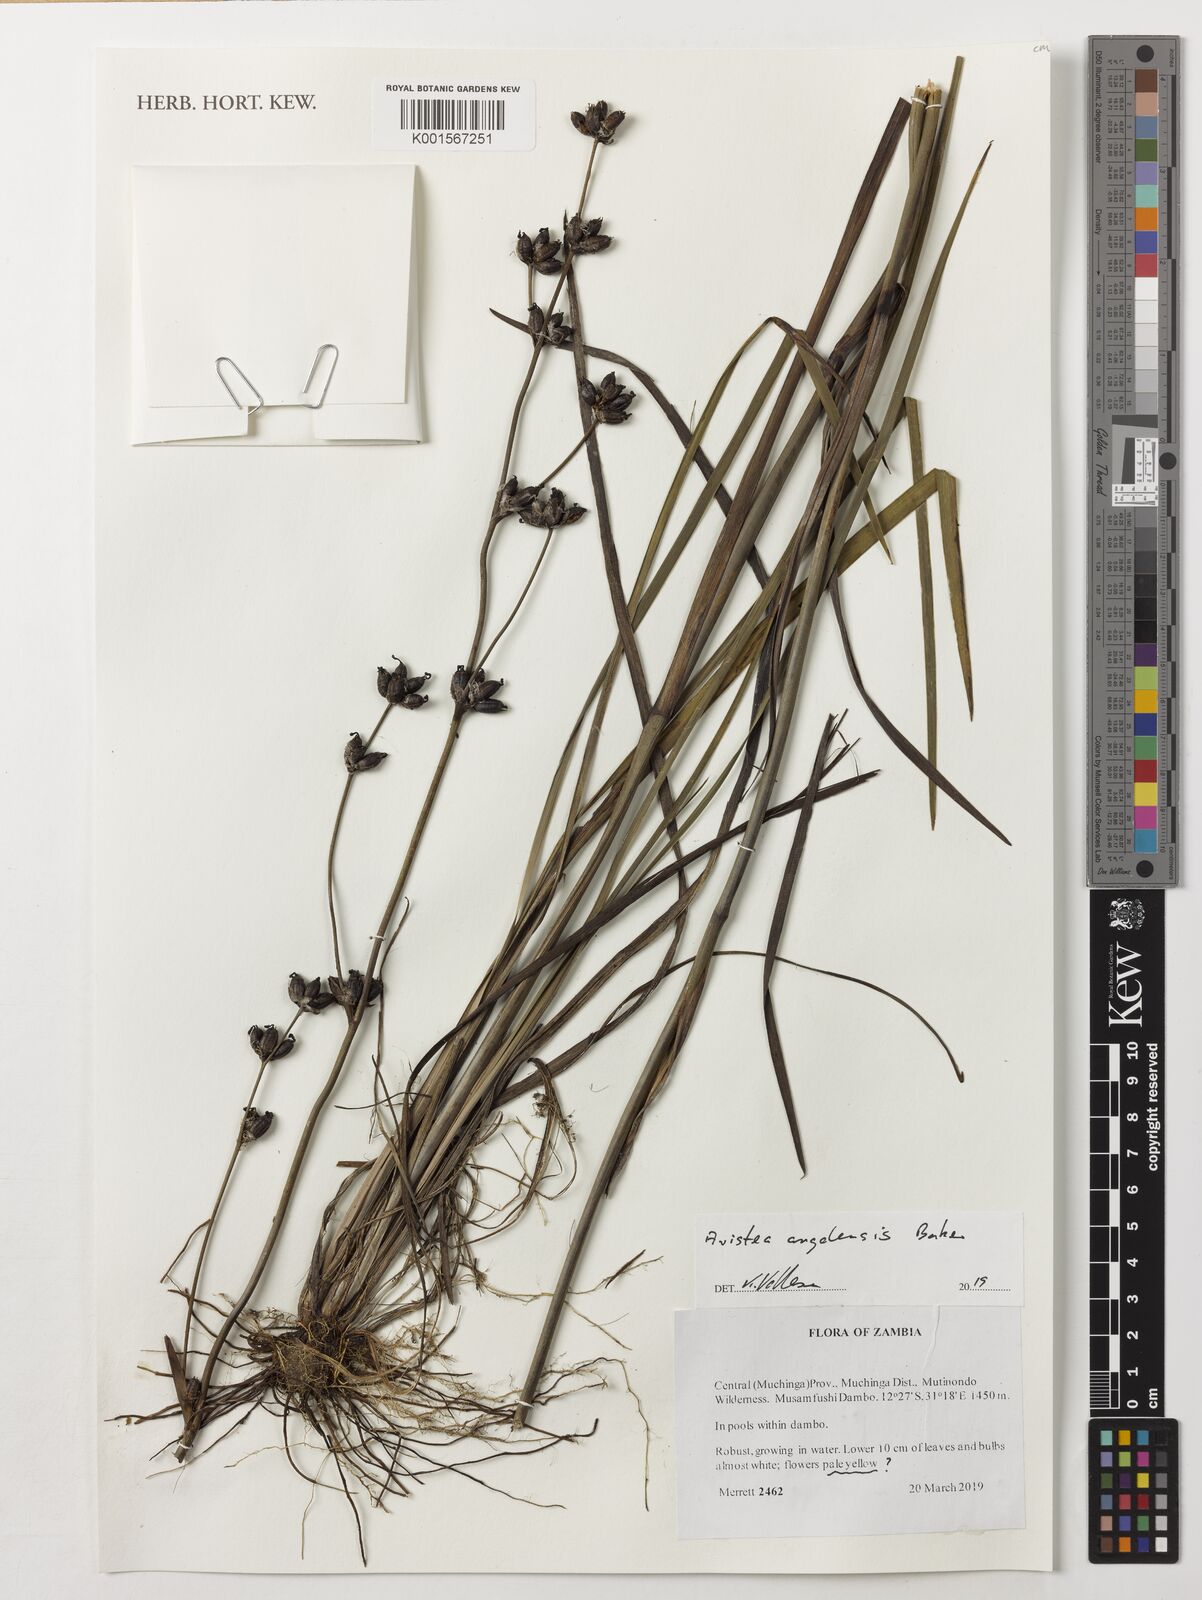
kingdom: Plantae
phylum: Tracheophyta
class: Liliopsida
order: Asparagales
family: Iridaceae
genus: Aristea
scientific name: Aristea angolensis
